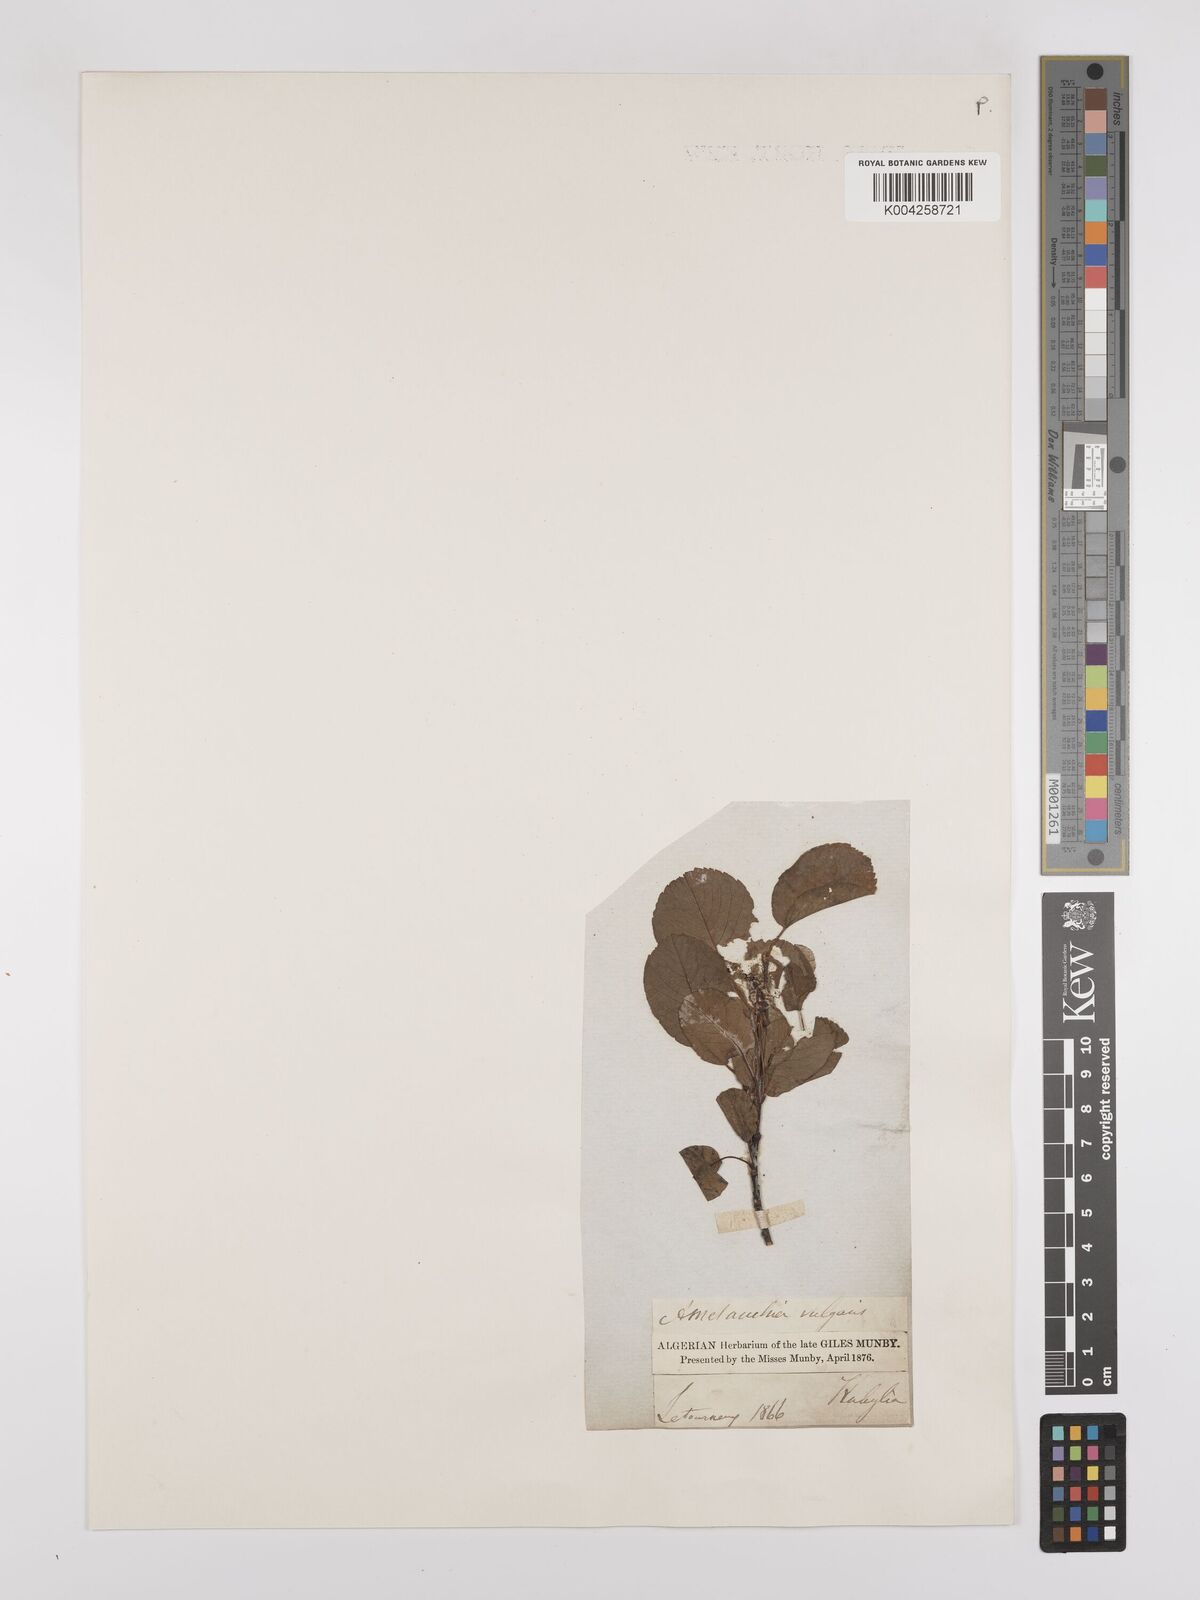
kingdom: Plantae
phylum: Tracheophyta
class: Magnoliopsida
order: Rosales
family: Rosaceae
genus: Amelanchier
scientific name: Amelanchier ovalis
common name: Serviceberry
